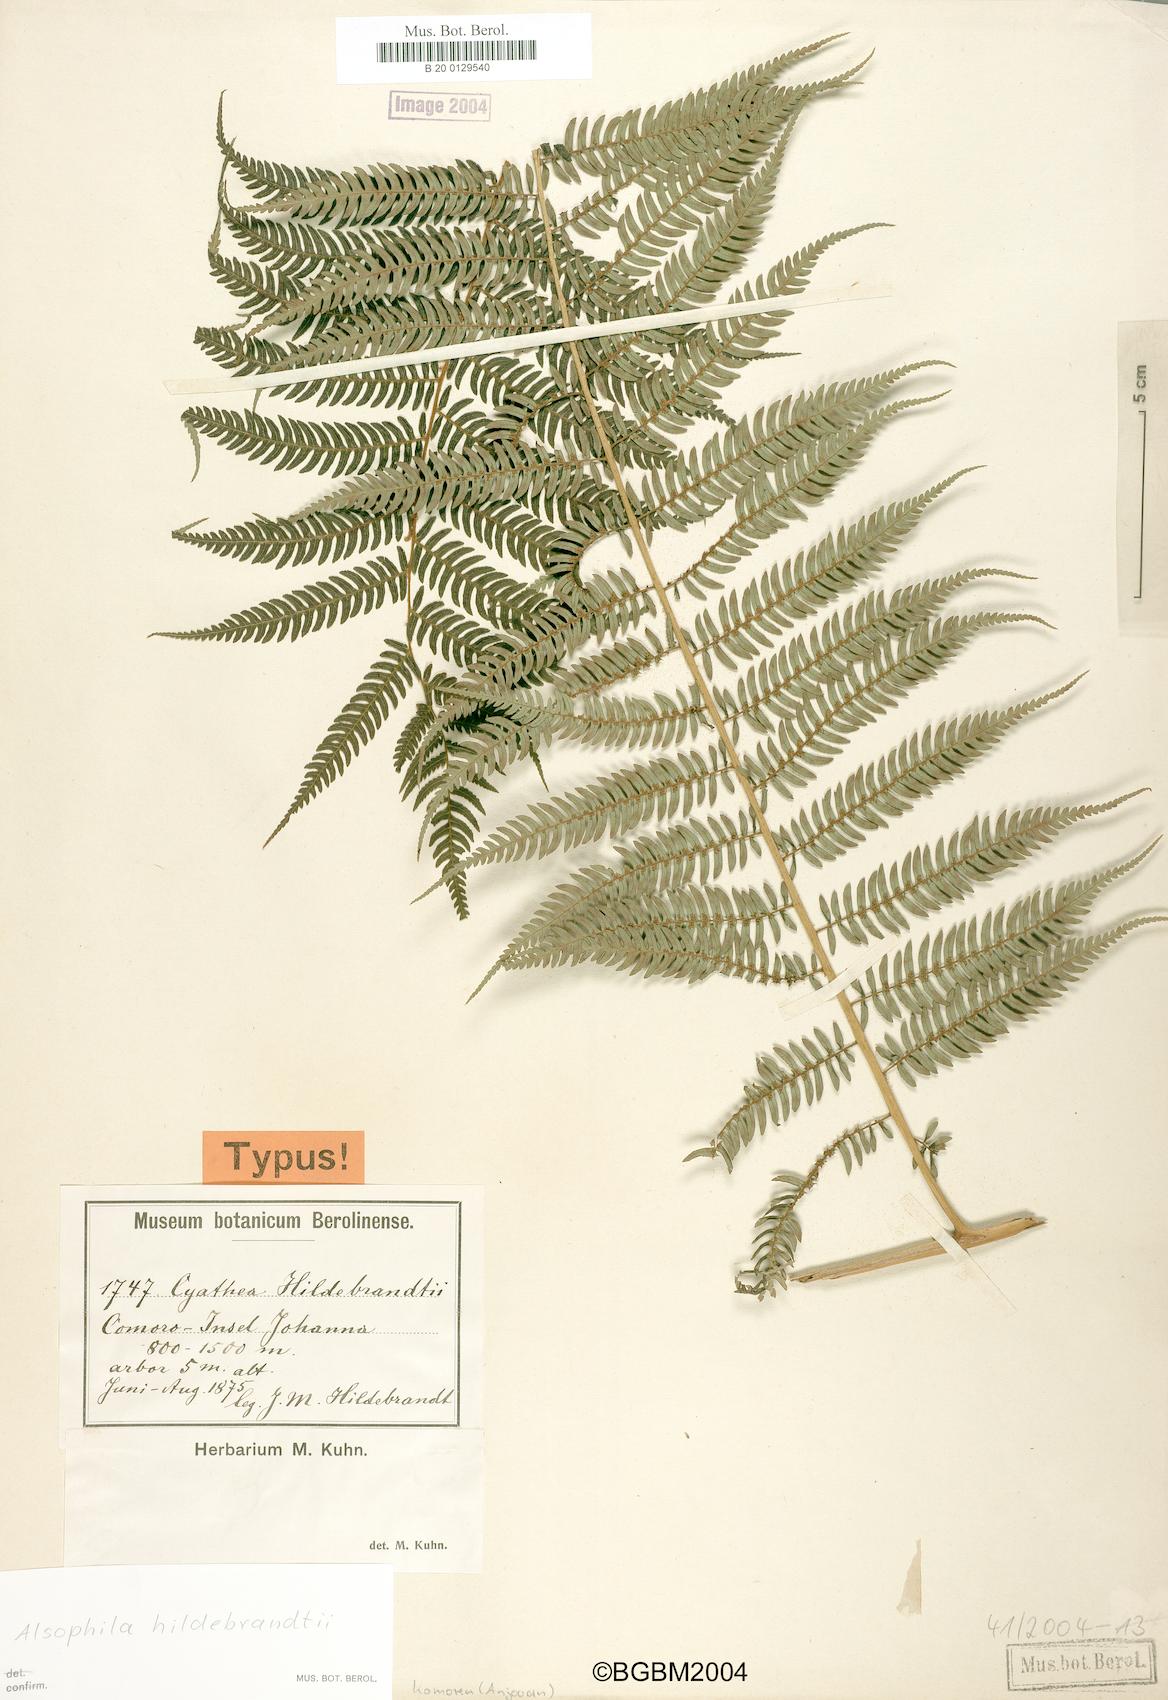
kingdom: Plantae
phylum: Tracheophyta
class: Polypodiopsida
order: Cyatheales
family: Cyatheaceae
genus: Gymnosphaera
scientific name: Gymnosphaera boivinii
